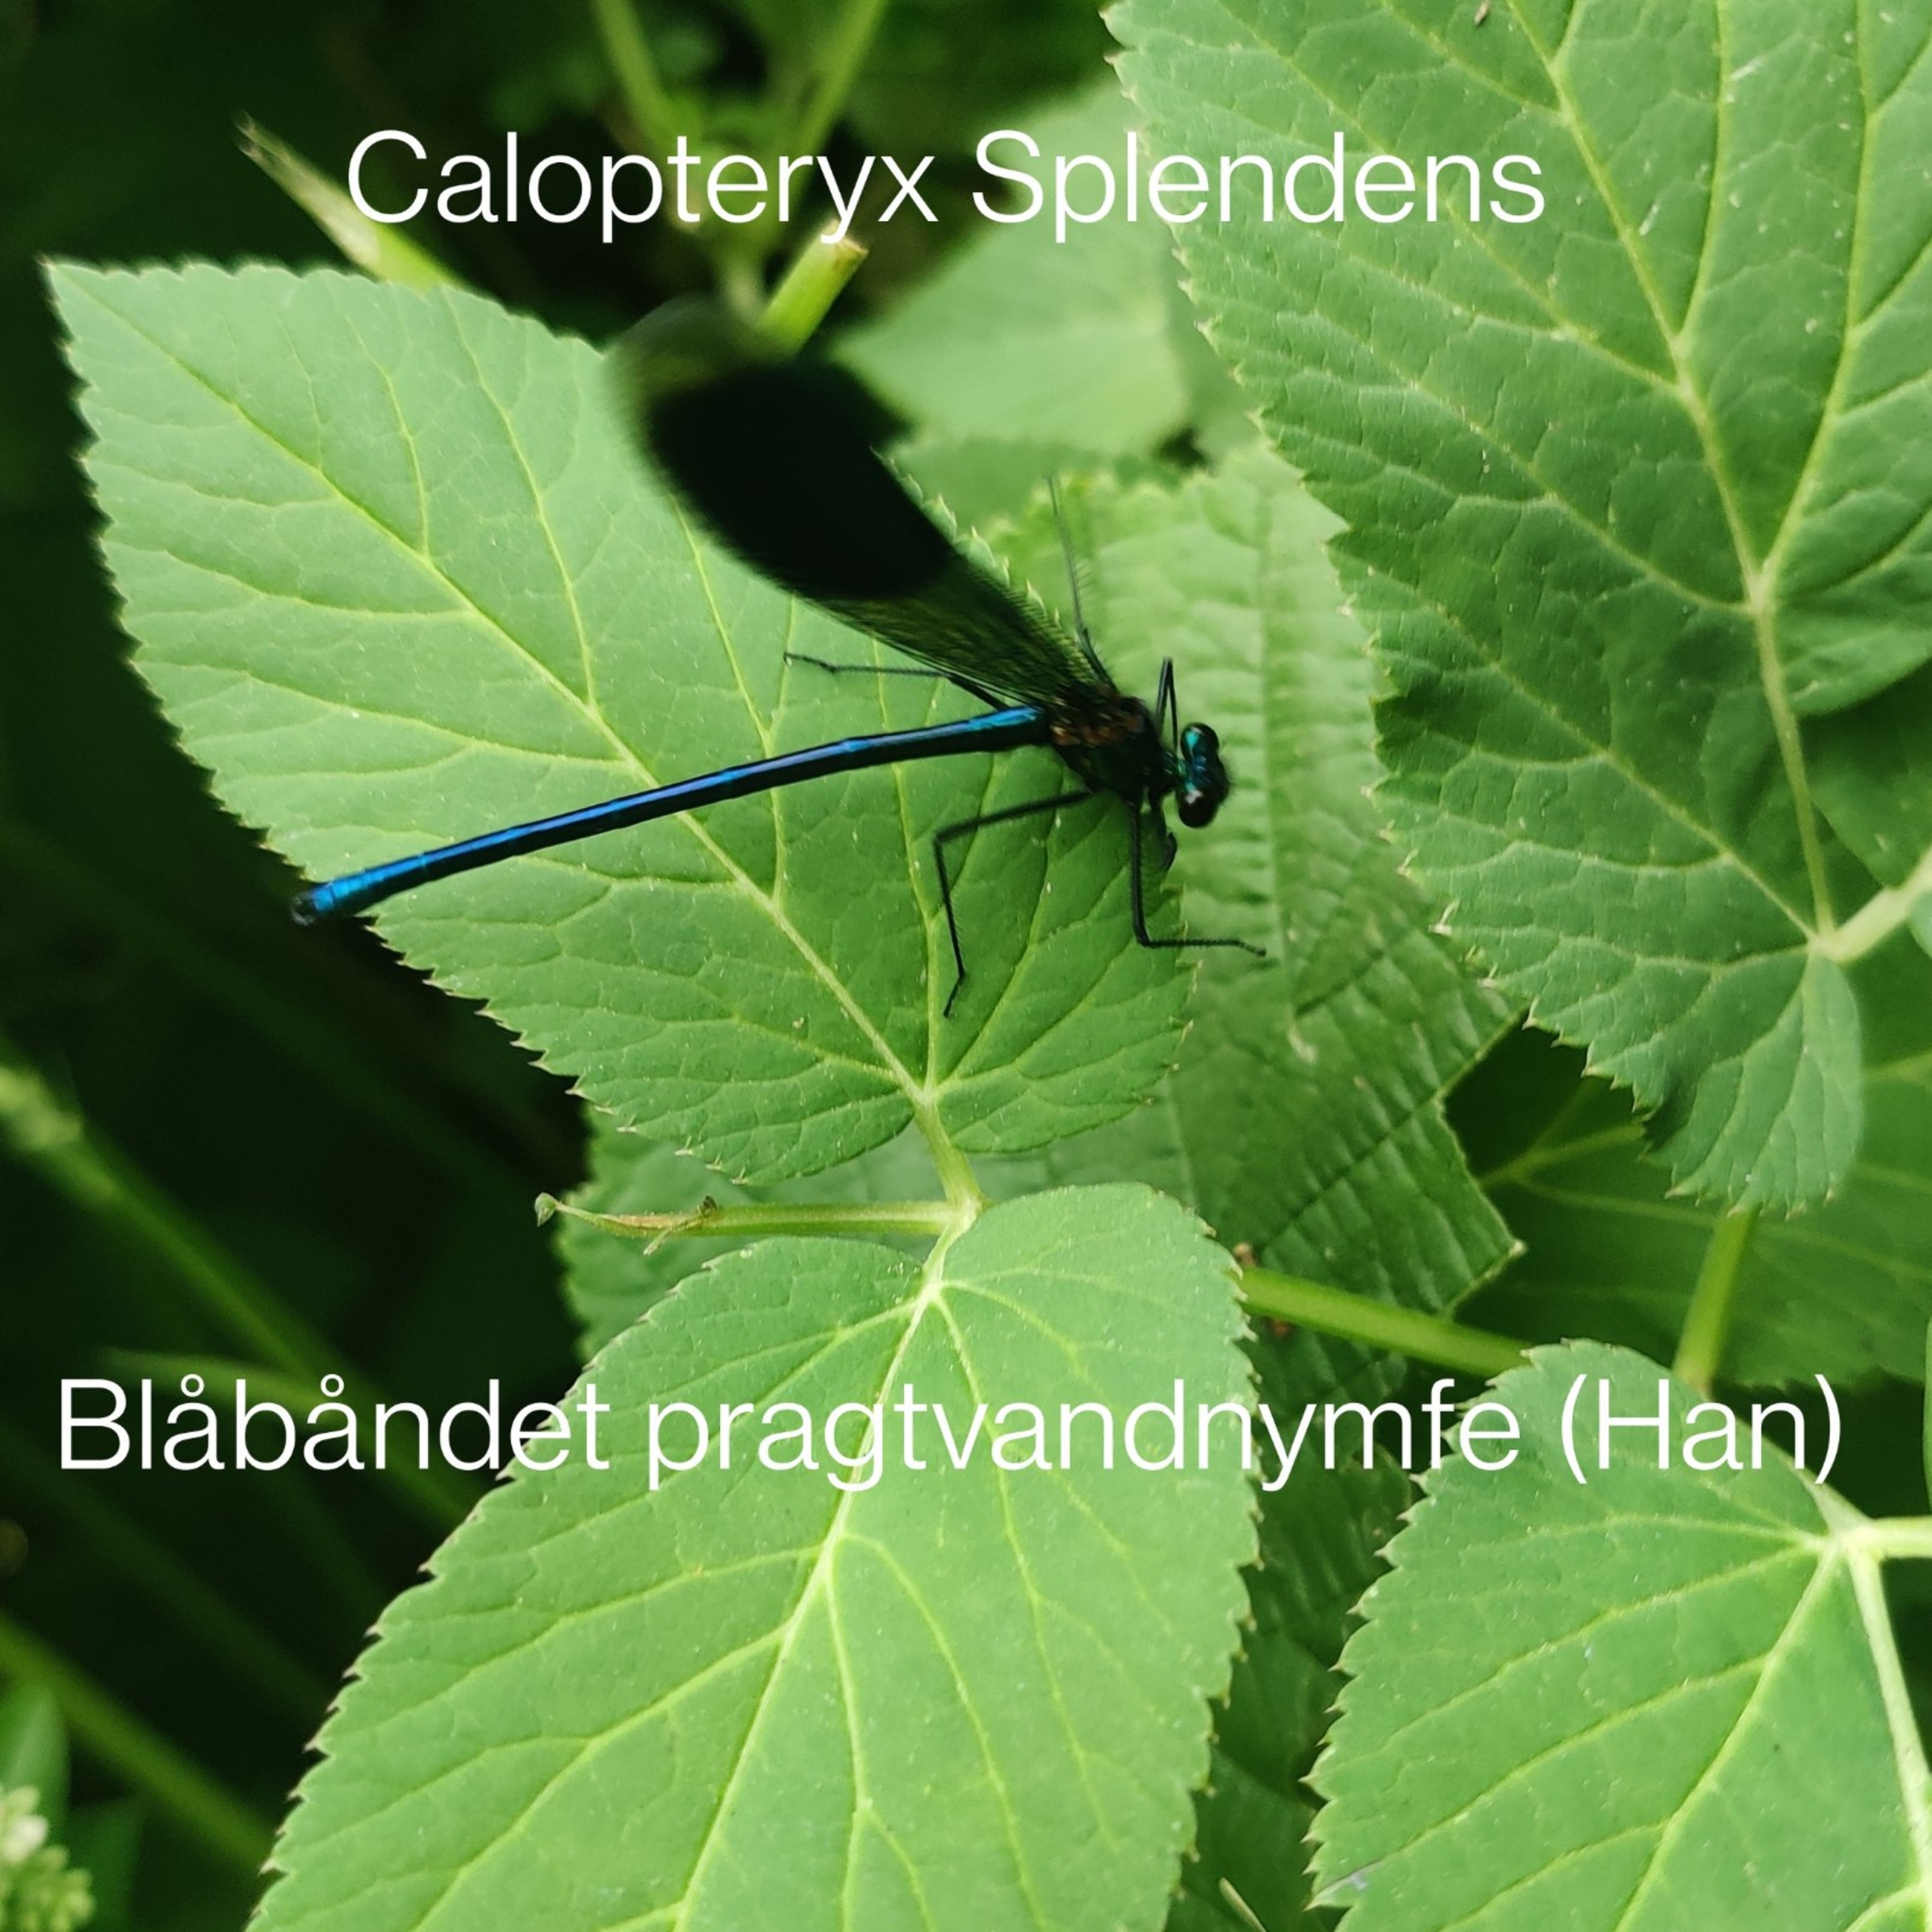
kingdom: Animalia
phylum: Arthropoda
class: Insecta
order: Odonata
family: Calopterygidae
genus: Calopteryx
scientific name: Calopteryx splendens
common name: Blåbåndet pragtvandnymfe
